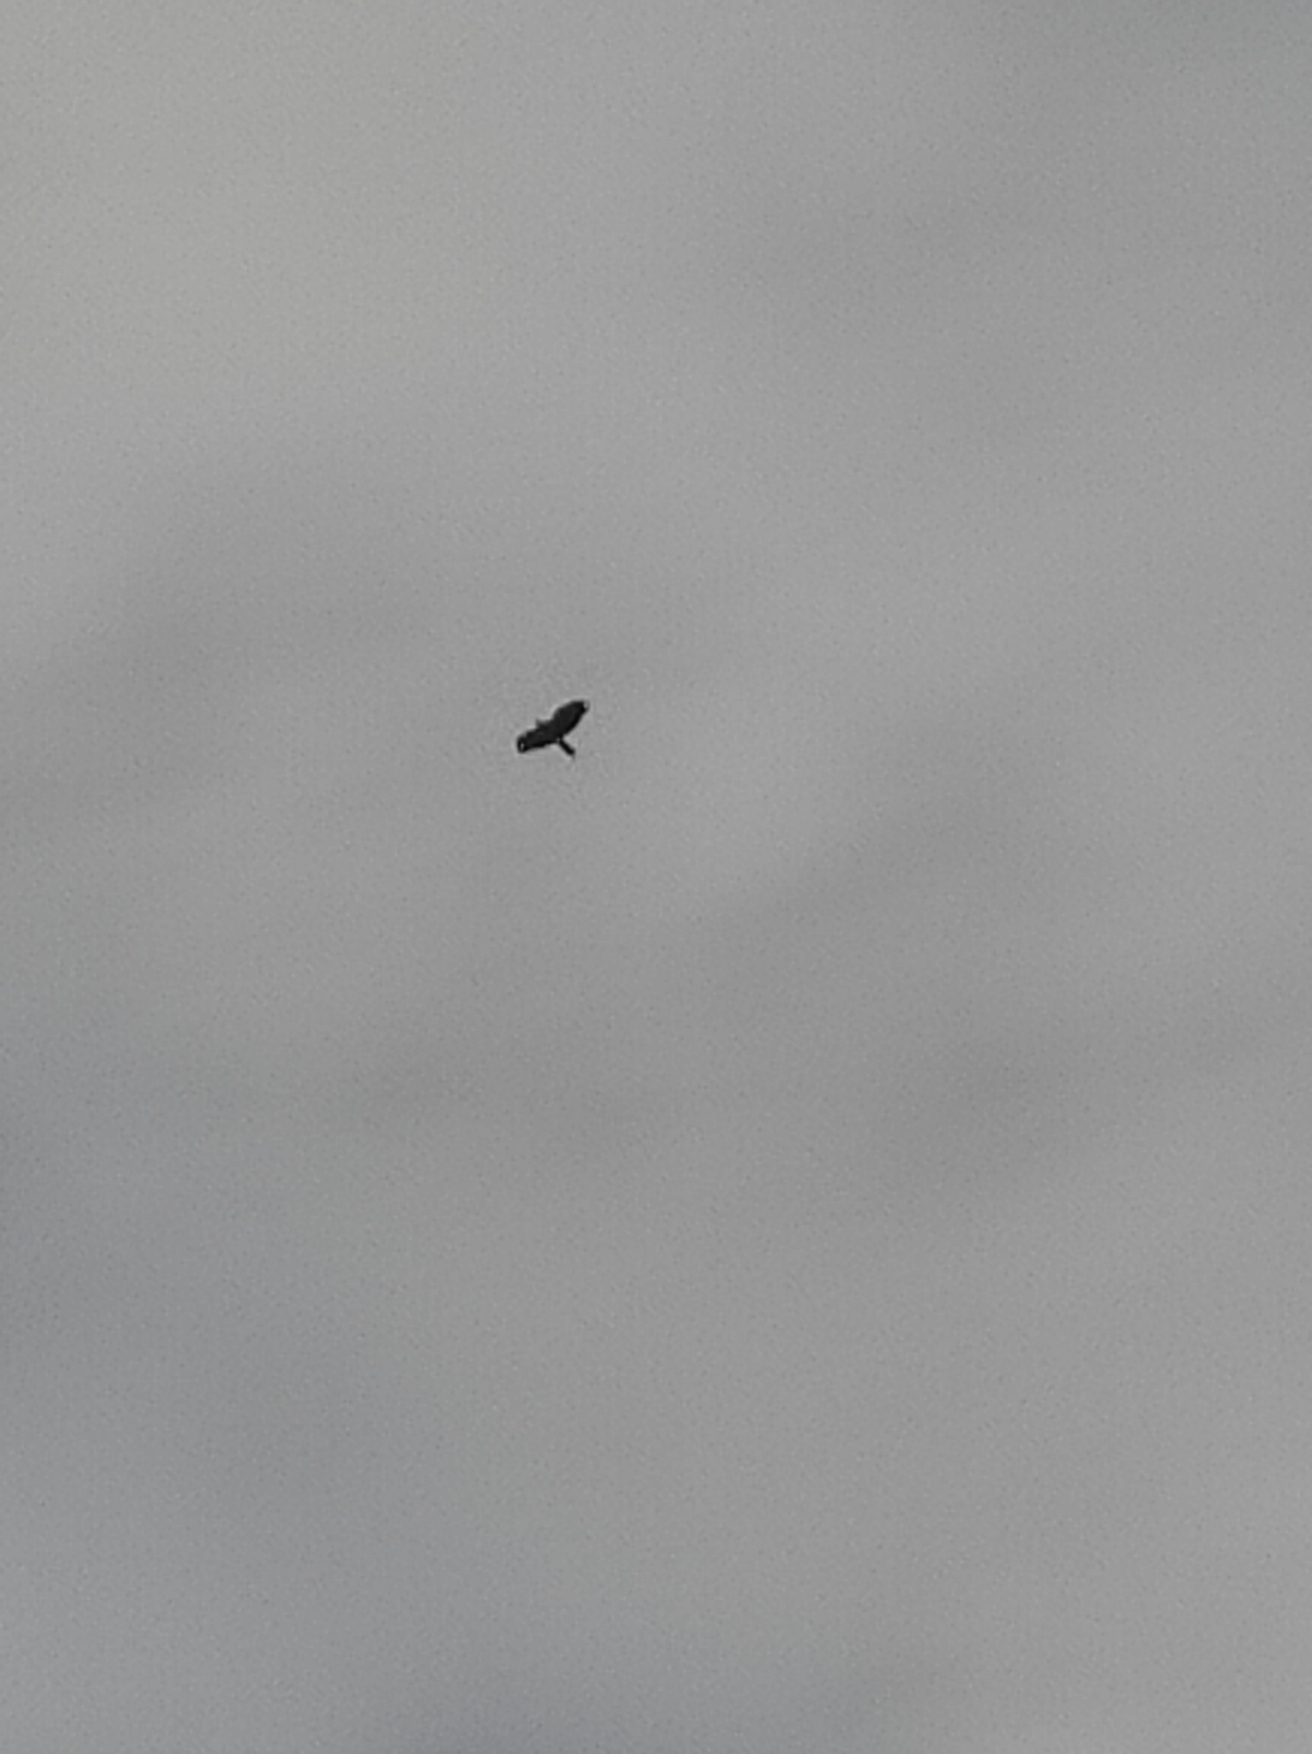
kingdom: Animalia
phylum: Chordata
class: Aves
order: Accipitriformes
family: Accipitridae
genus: Buteo
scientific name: Buteo buteo
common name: Musvåge
